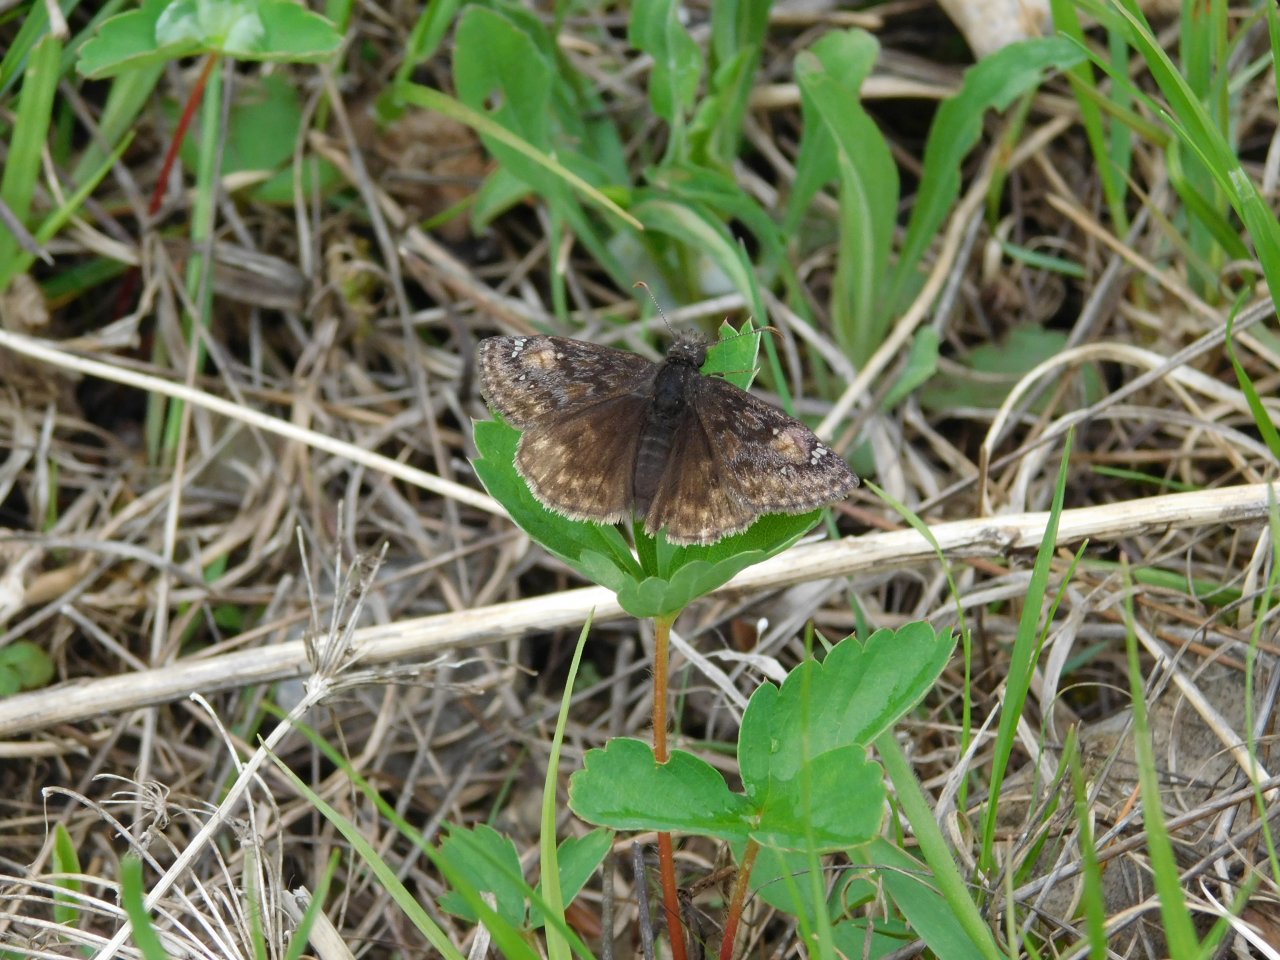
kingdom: Animalia
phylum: Arthropoda
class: Insecta
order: Lepidoptera
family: Hesperiidae
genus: Gesta
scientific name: Gesta
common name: Juvenal's Duskywing
